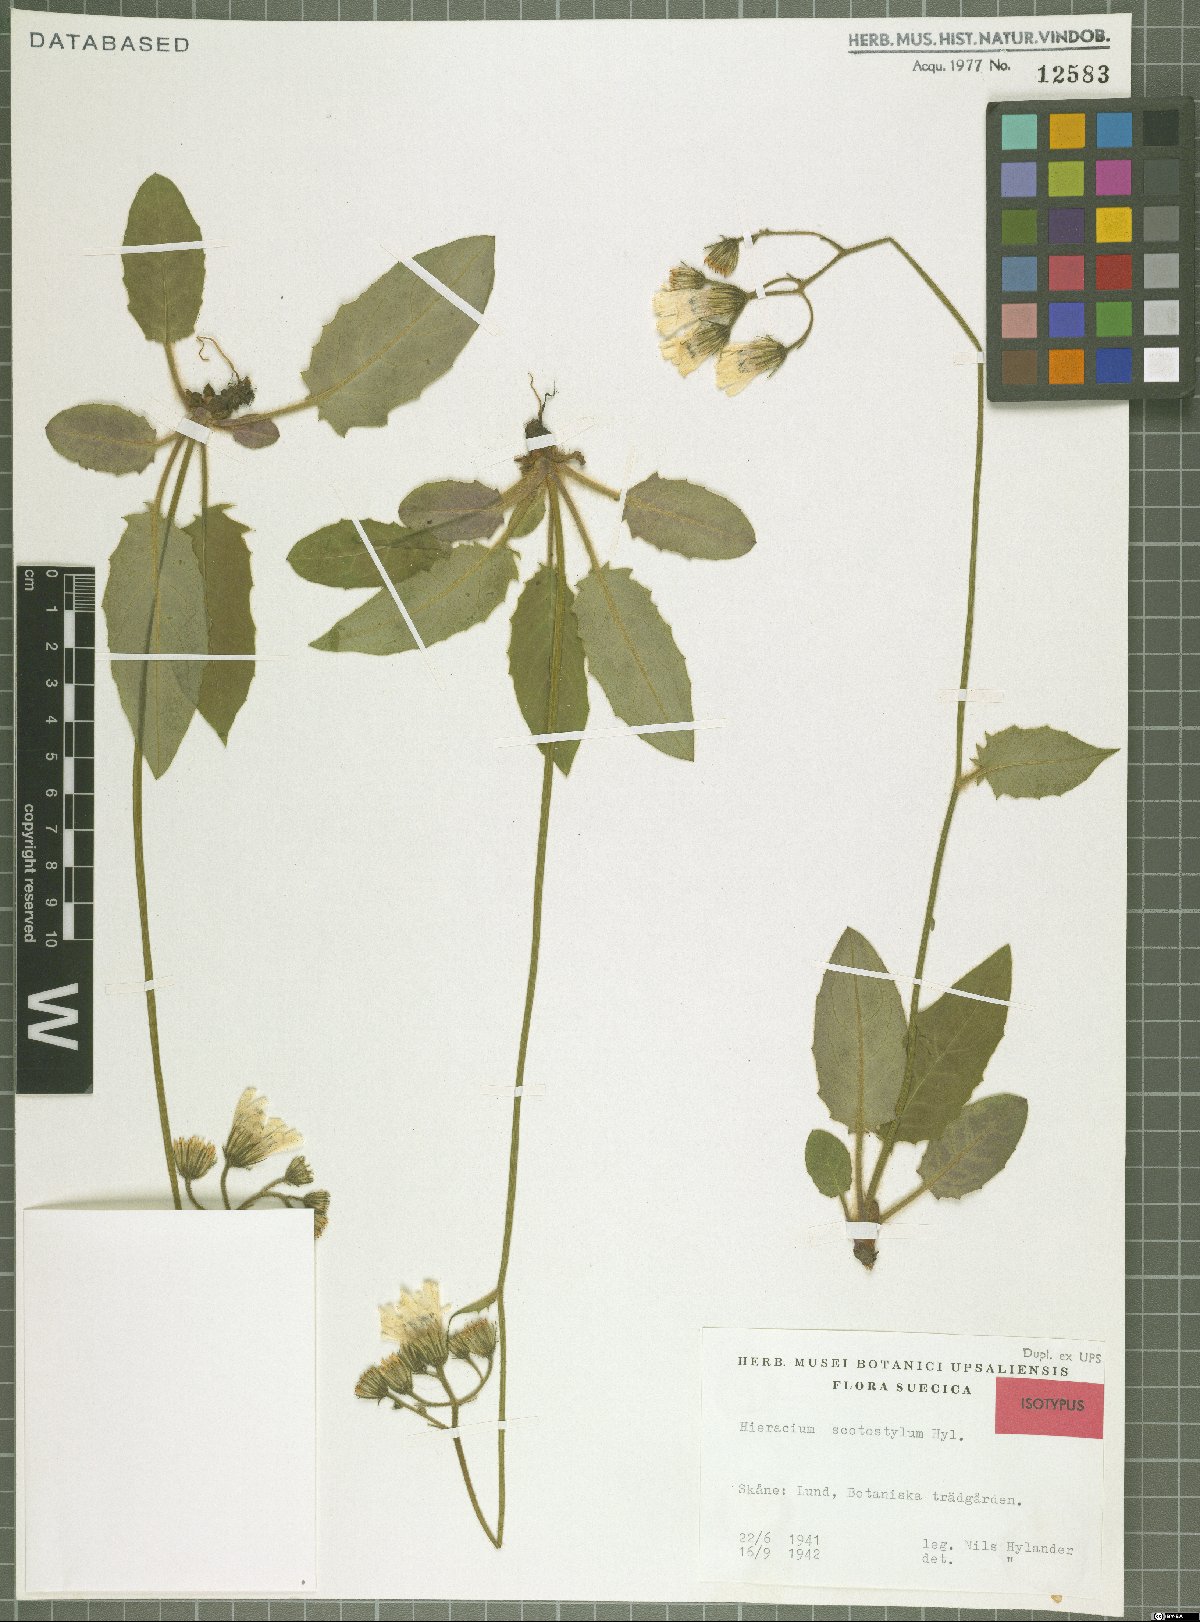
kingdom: Plantae
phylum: Tracheophyta
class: Magnoliopsida
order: Asterales
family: Asteraceae
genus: Hieracium
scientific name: Hieracium glaucinum
